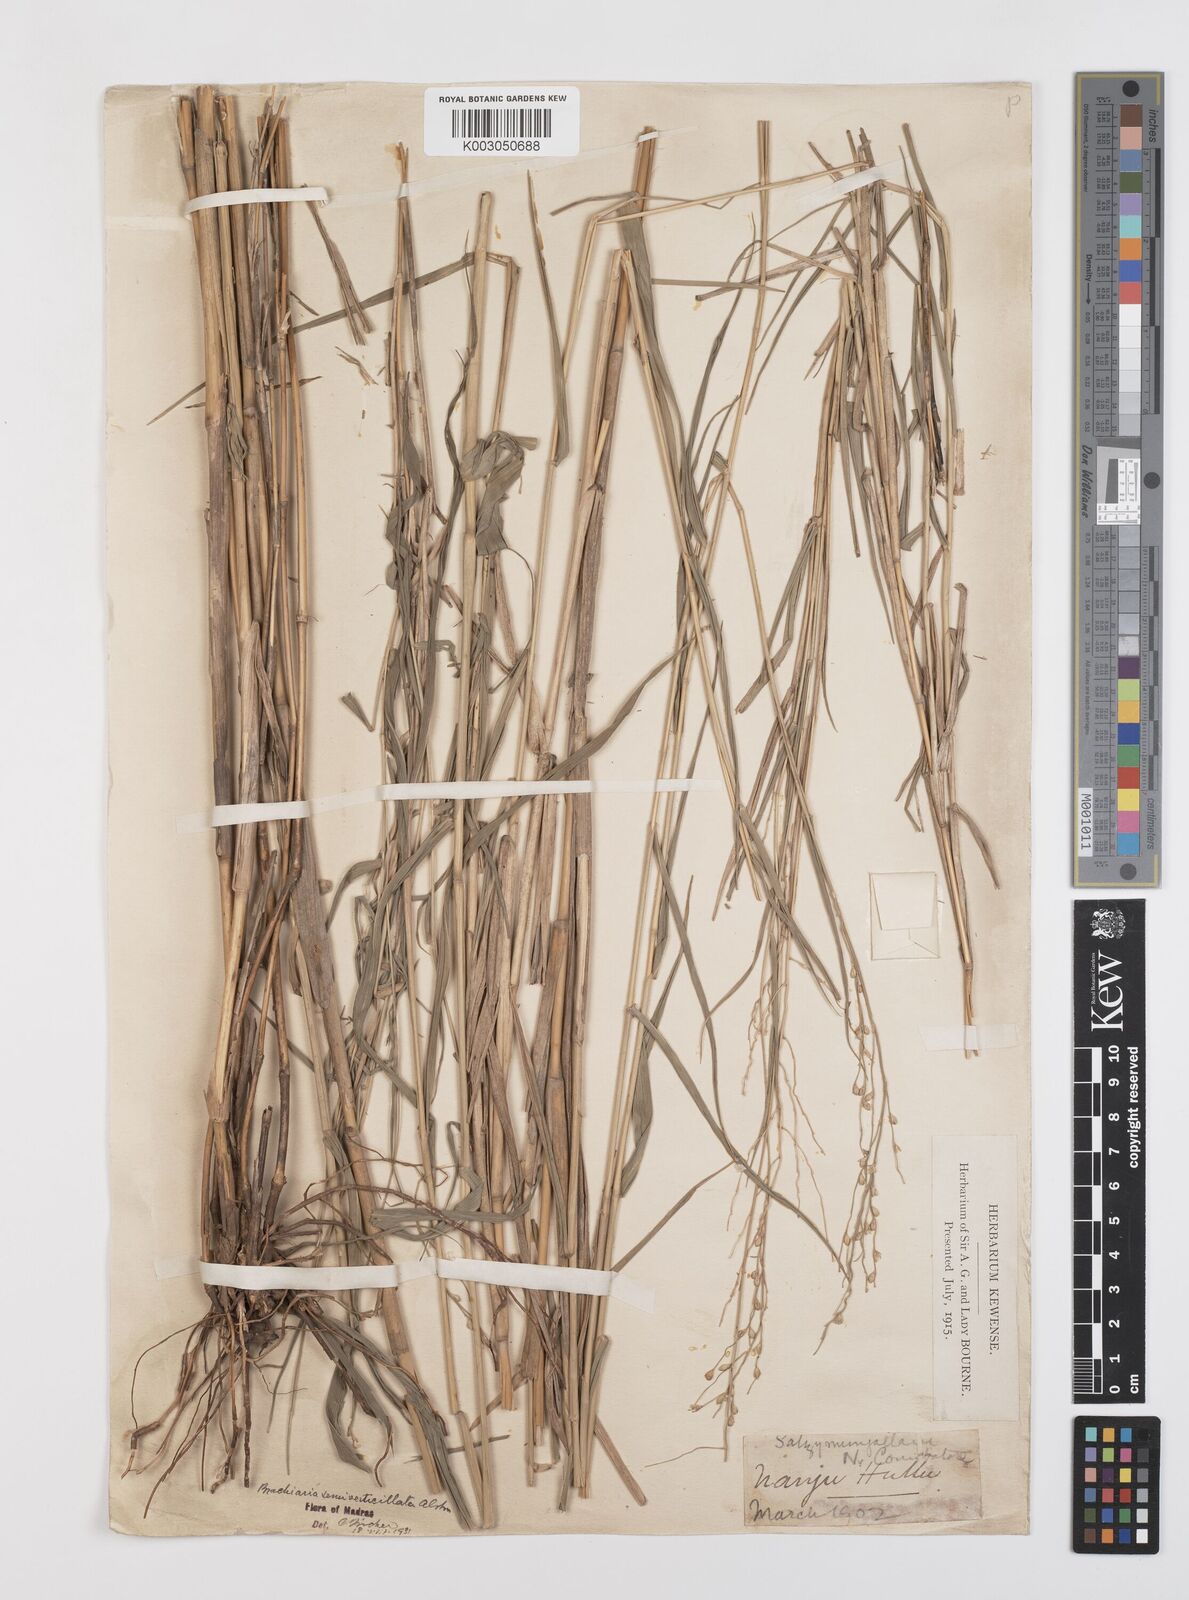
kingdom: Plantae
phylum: Tracheophyta
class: Liliopsida
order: Poales
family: Poaceae
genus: Urochloa
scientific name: Urochloa Brachiaria semiverticillata
